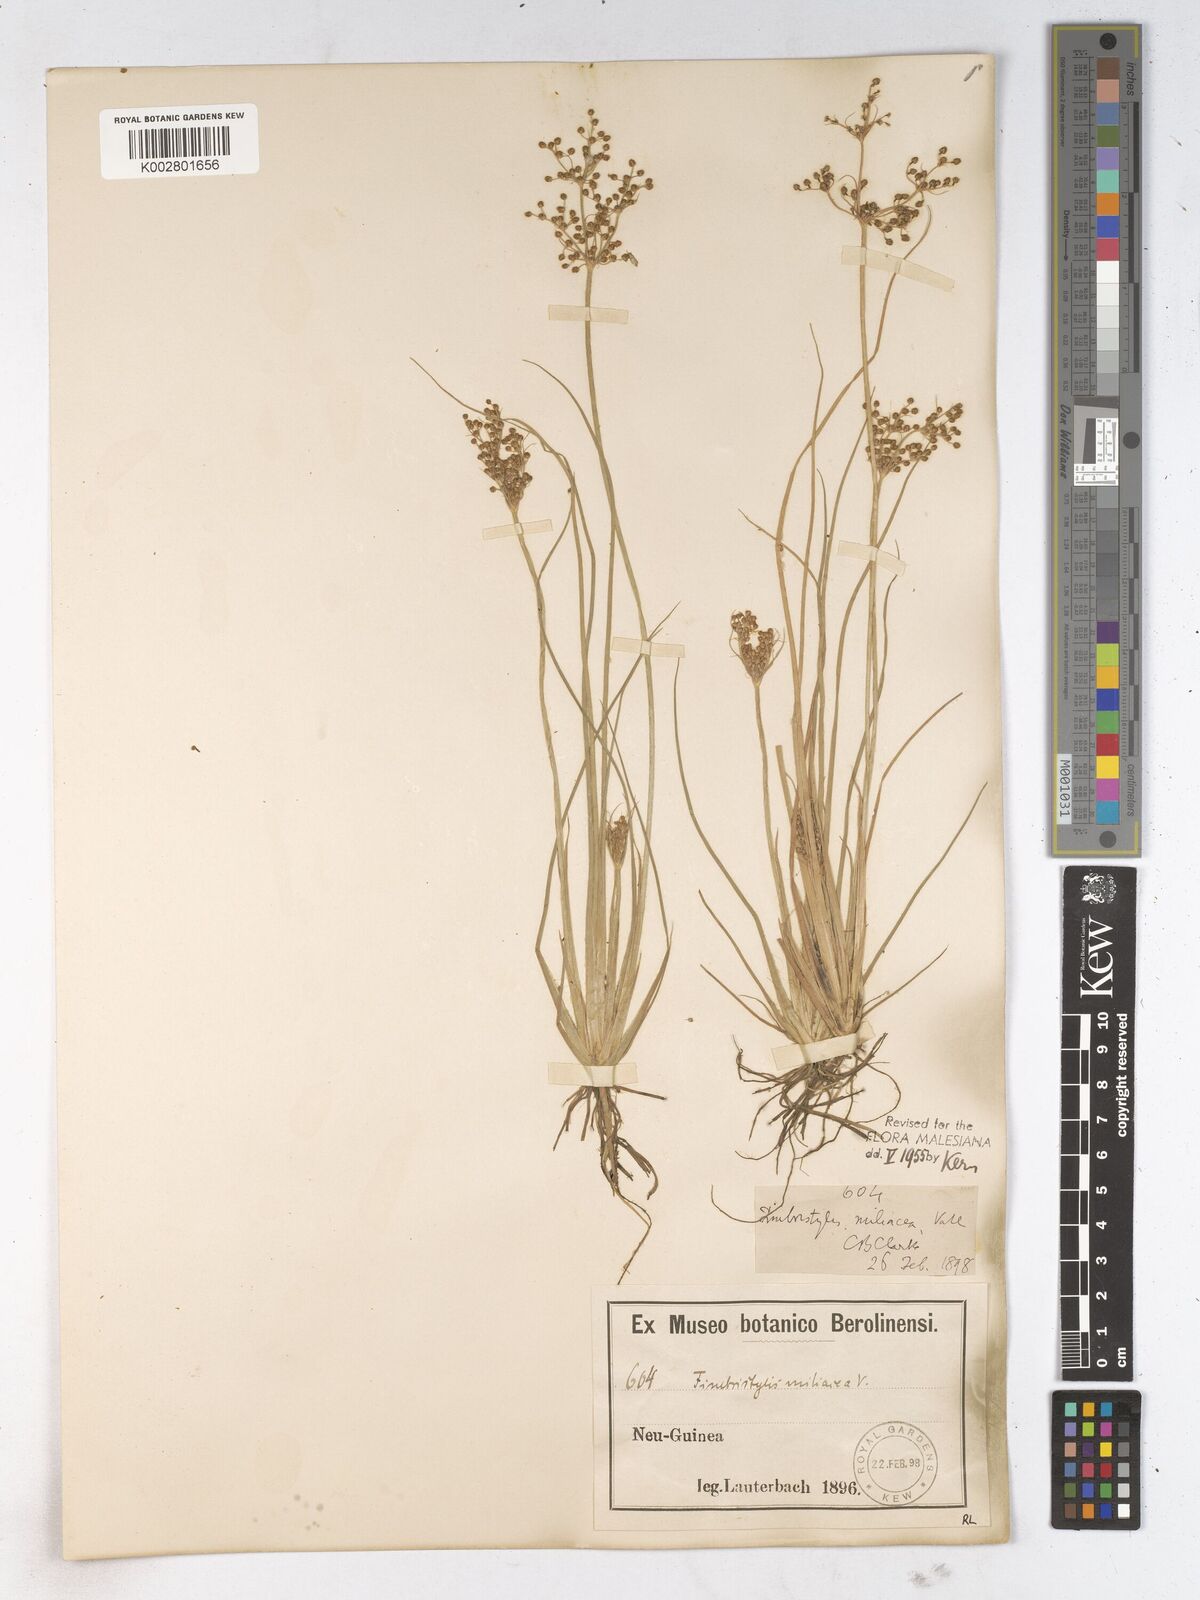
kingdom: Plantae
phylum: Tracheophyta
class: Liliopsida
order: Poales
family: Cyperaceae
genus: Fimbristylis
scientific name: Fimbristylis littoralis
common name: Fimbry
